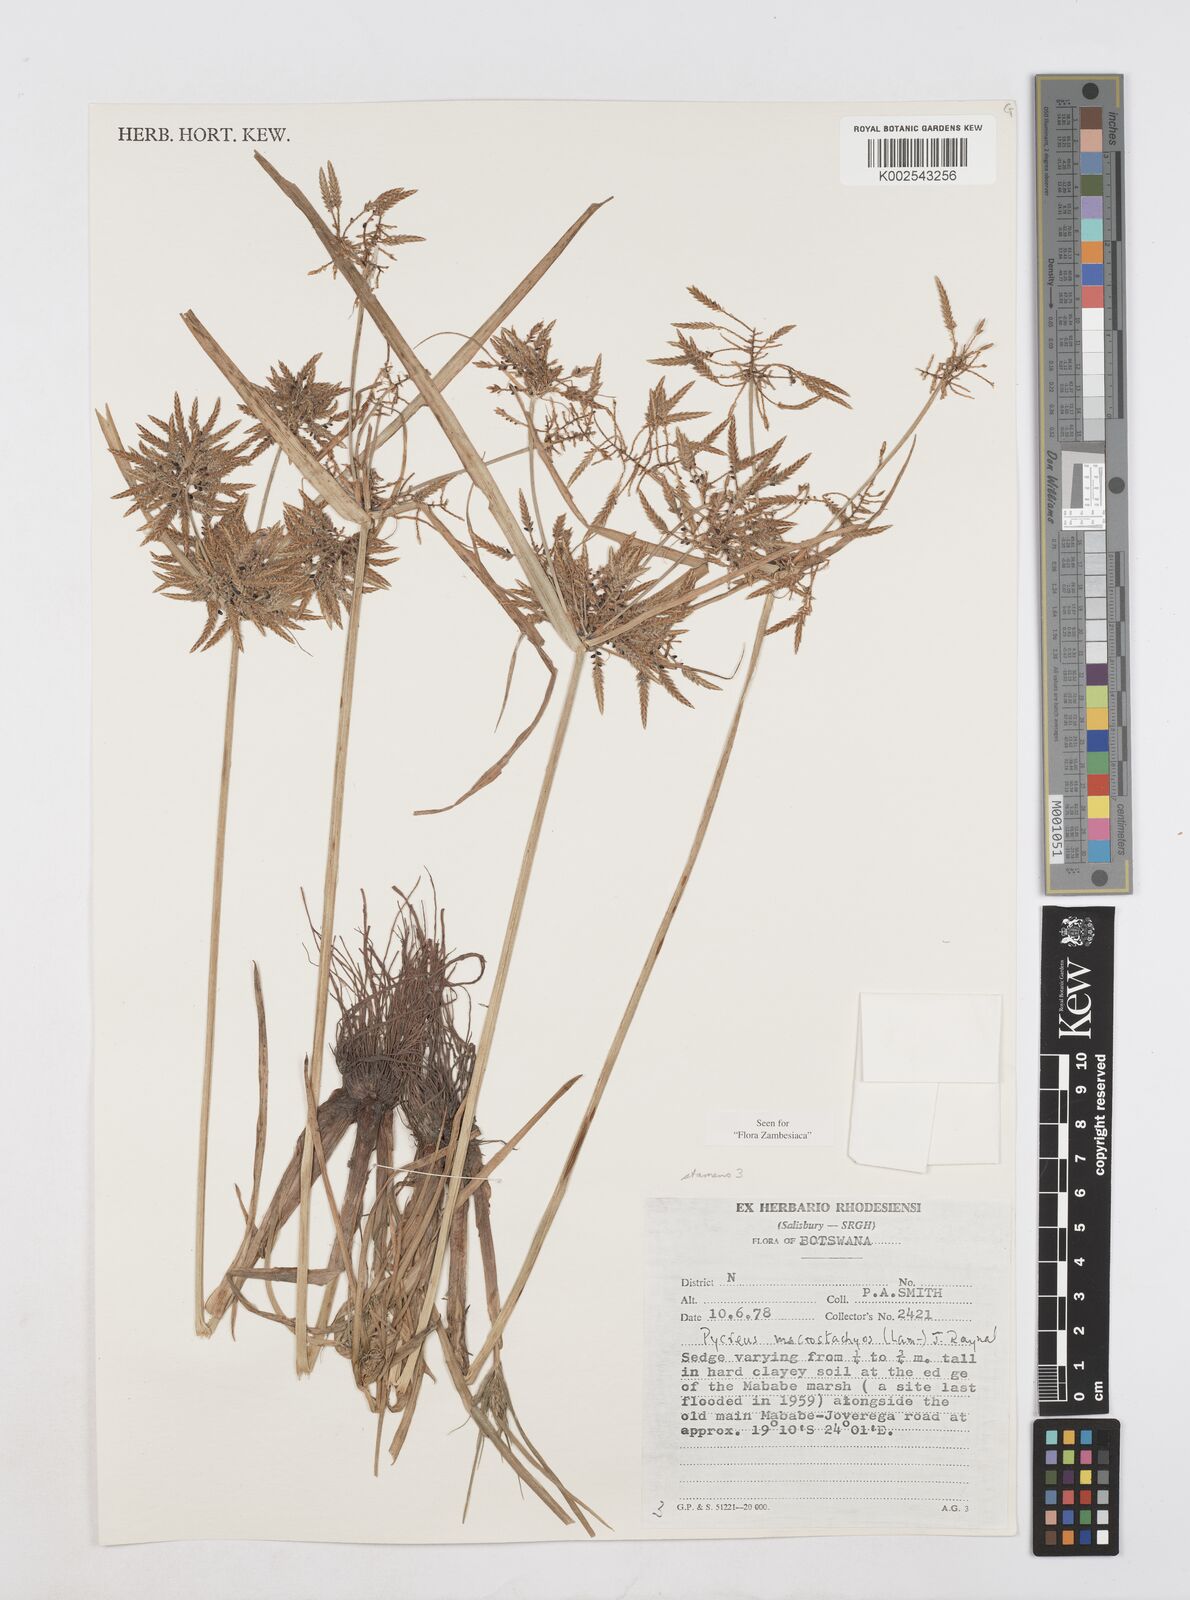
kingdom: Plantae
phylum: Tracheophyta
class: Liliopsida
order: Poales
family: Cyperaceae
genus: Cyperus
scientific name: Cyperus macrostachyos
